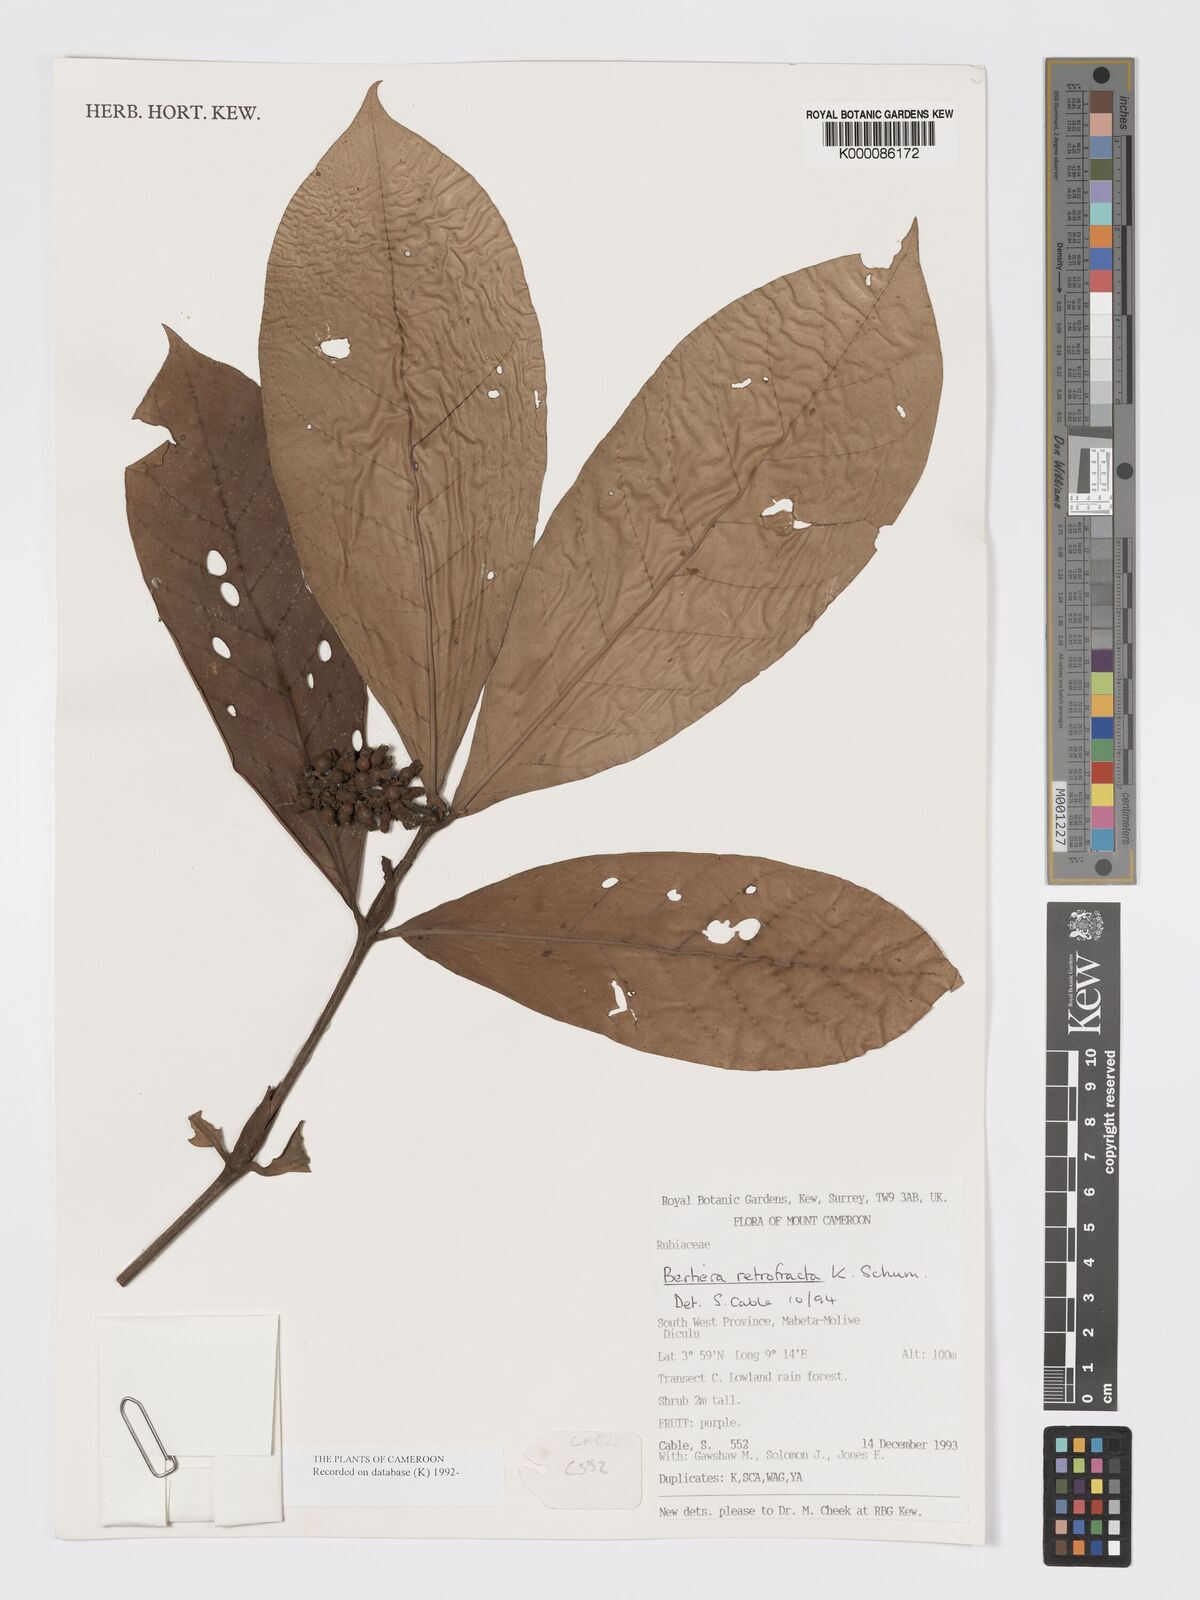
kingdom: Plantae
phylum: Tracheophyta
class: Magnoliopsida
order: Gentianales
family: Rubiaceae
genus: Bertiera
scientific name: Bertiera retrofracta
